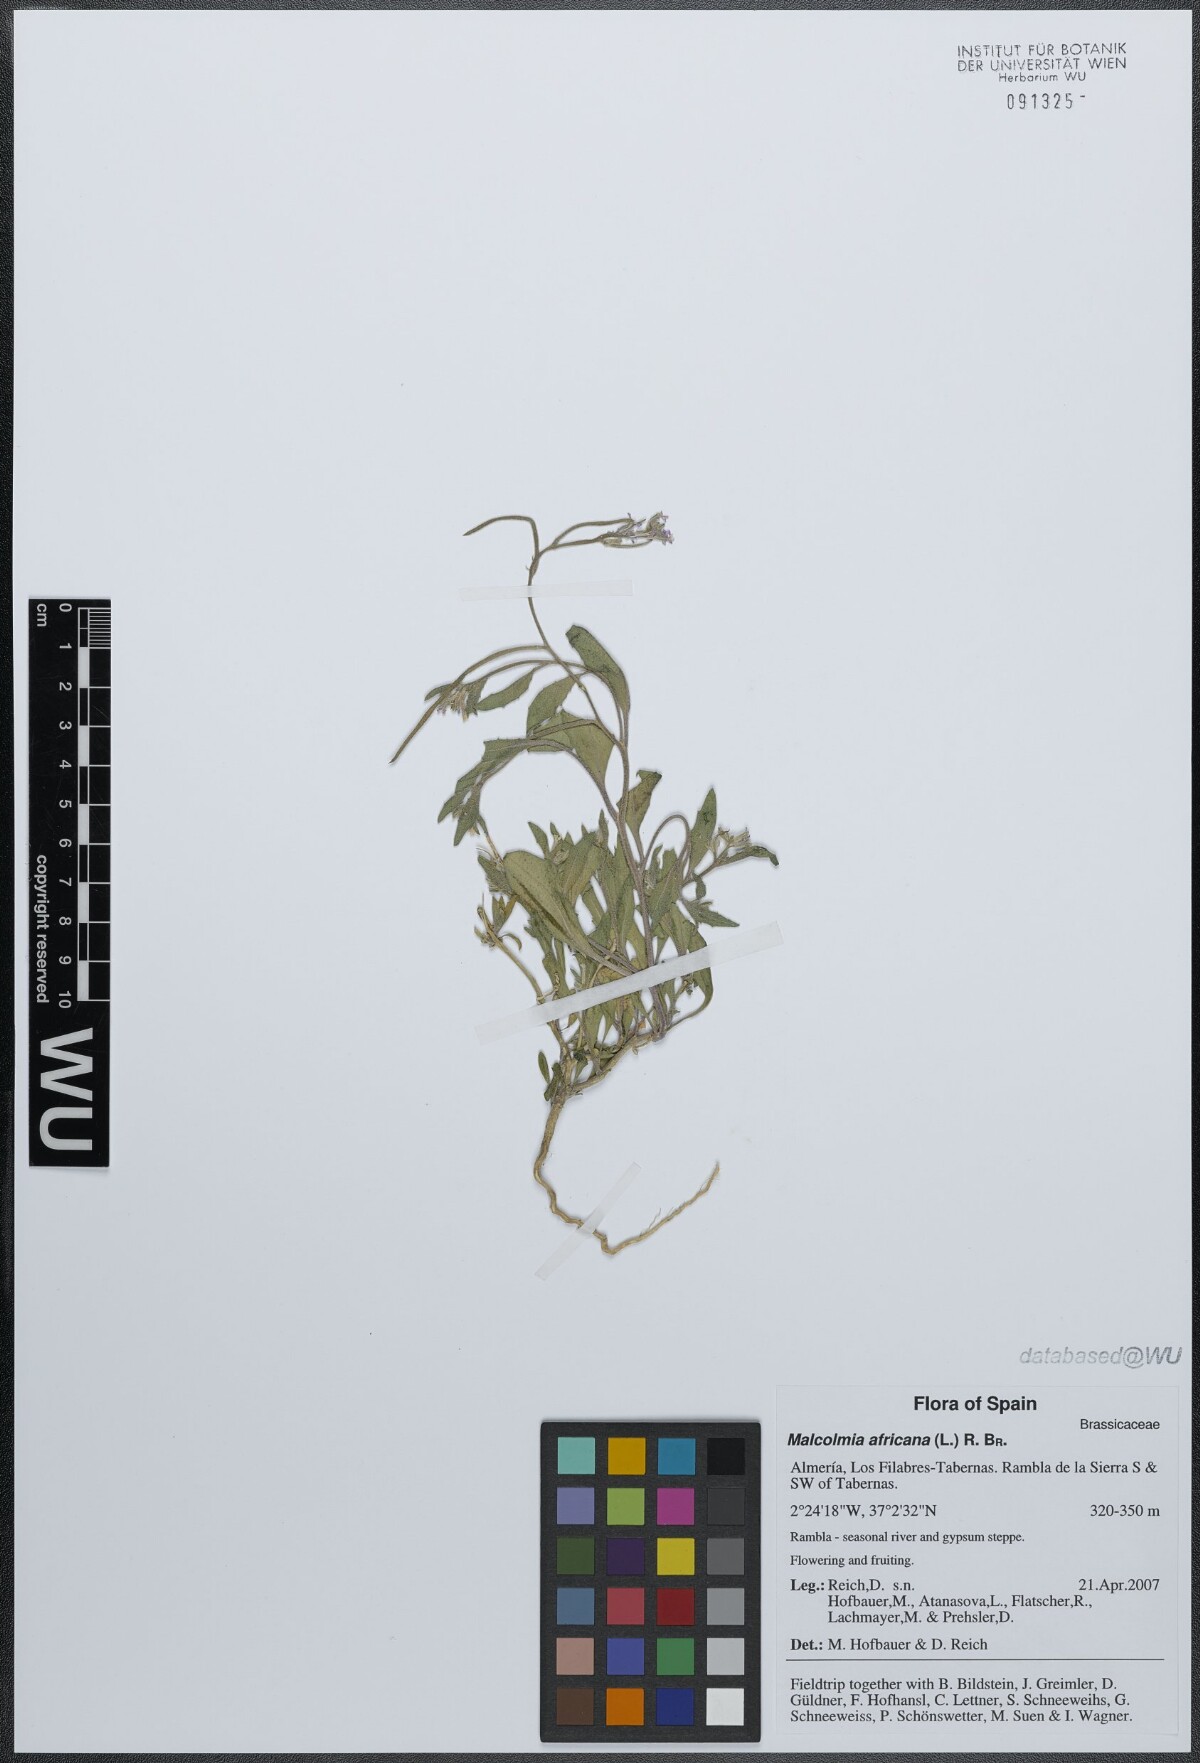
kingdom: Plantae
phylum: Tracheophyta
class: Magnoliopsida
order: Brassicales
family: Brassicaceae
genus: Malcolmia
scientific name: Malcolmia africana
